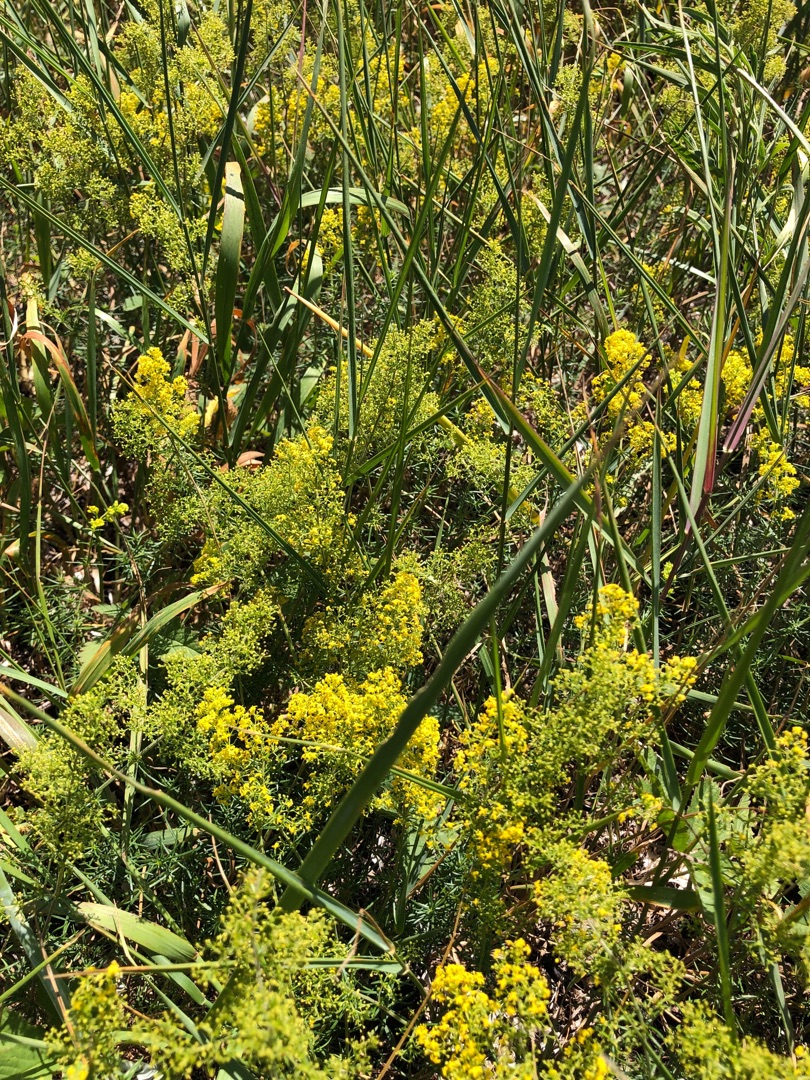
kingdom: Plantae
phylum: Tracheophyta
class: Magnoliopsida
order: Gentianales
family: Rubiaceae
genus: Galium
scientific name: Galium verum
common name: Gul snerre
